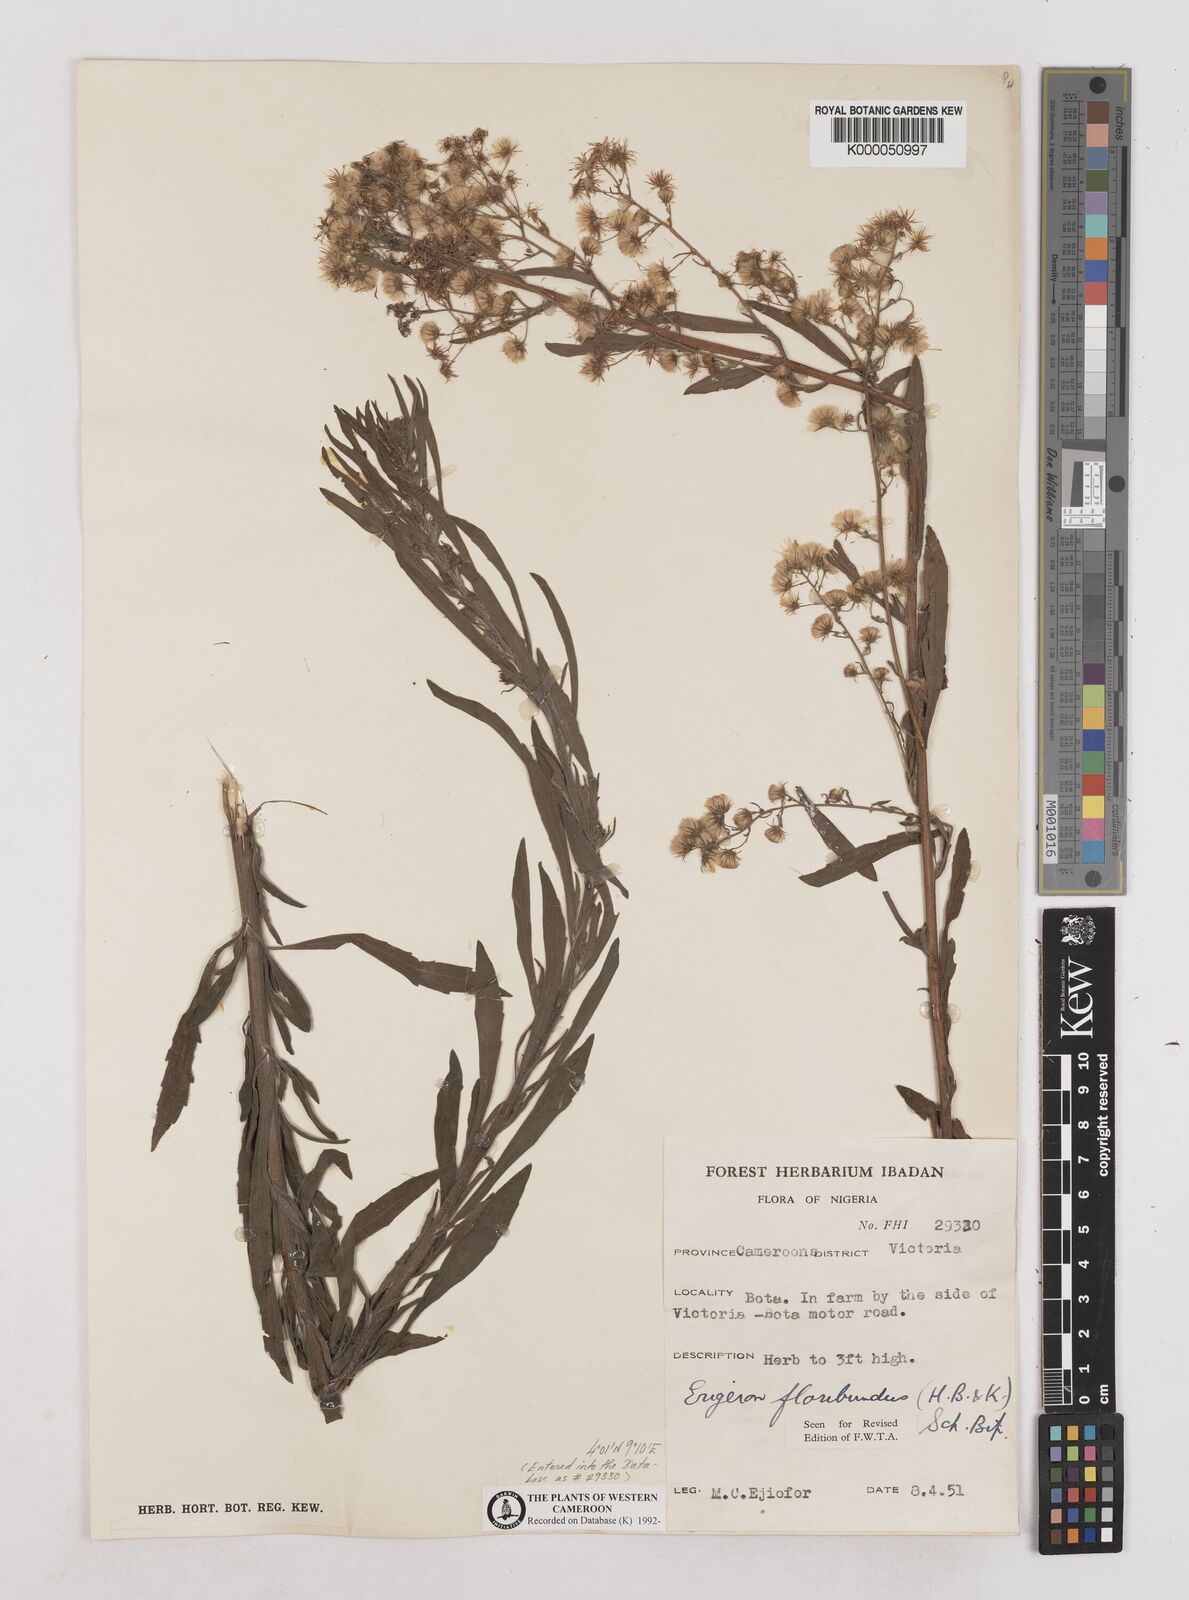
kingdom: Plantae
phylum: Tracheophyta
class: Magnoliopsida
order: Asterales
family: Asteraceae
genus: Erigeron
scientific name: Erigeron sumatrensis
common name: Daisy
